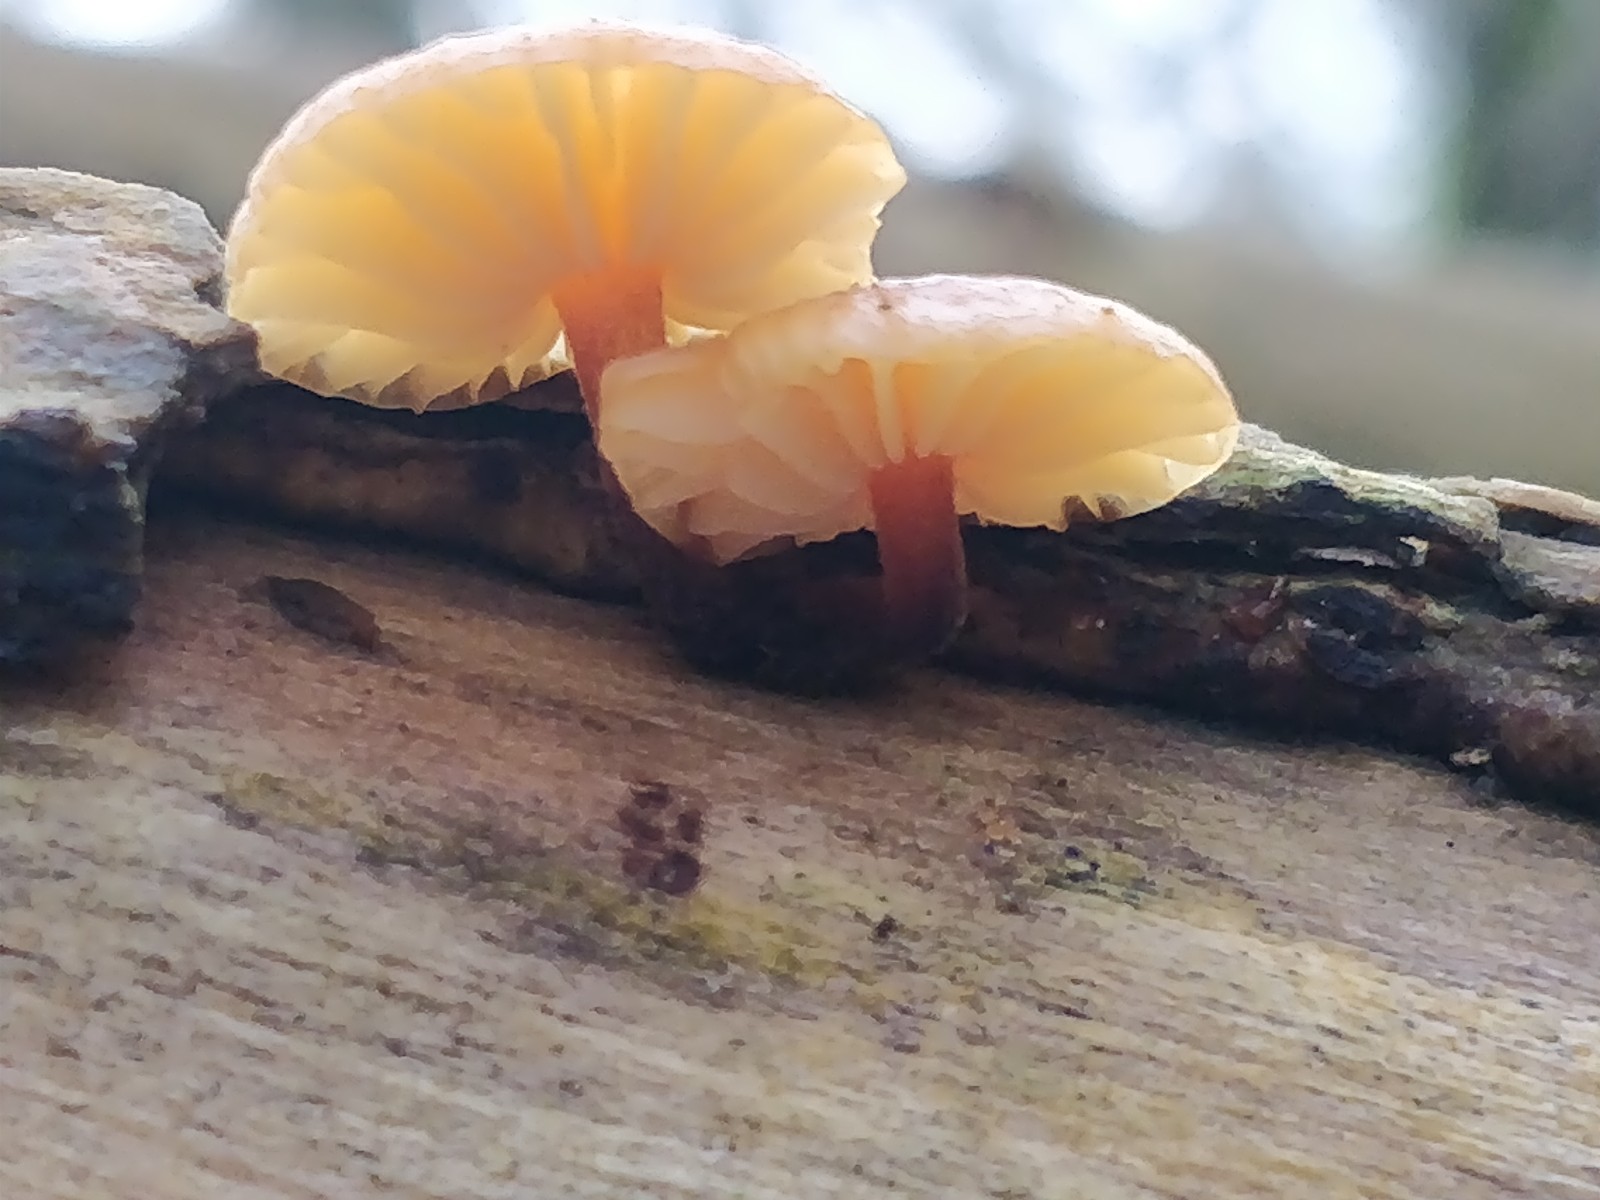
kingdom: Fungi
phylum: Basidiomycota
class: Agaricomycetes
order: Agaricales
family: Physalacriaceae
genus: Flammulina
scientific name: Flammulina velutipes
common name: gul fløjlsfod
